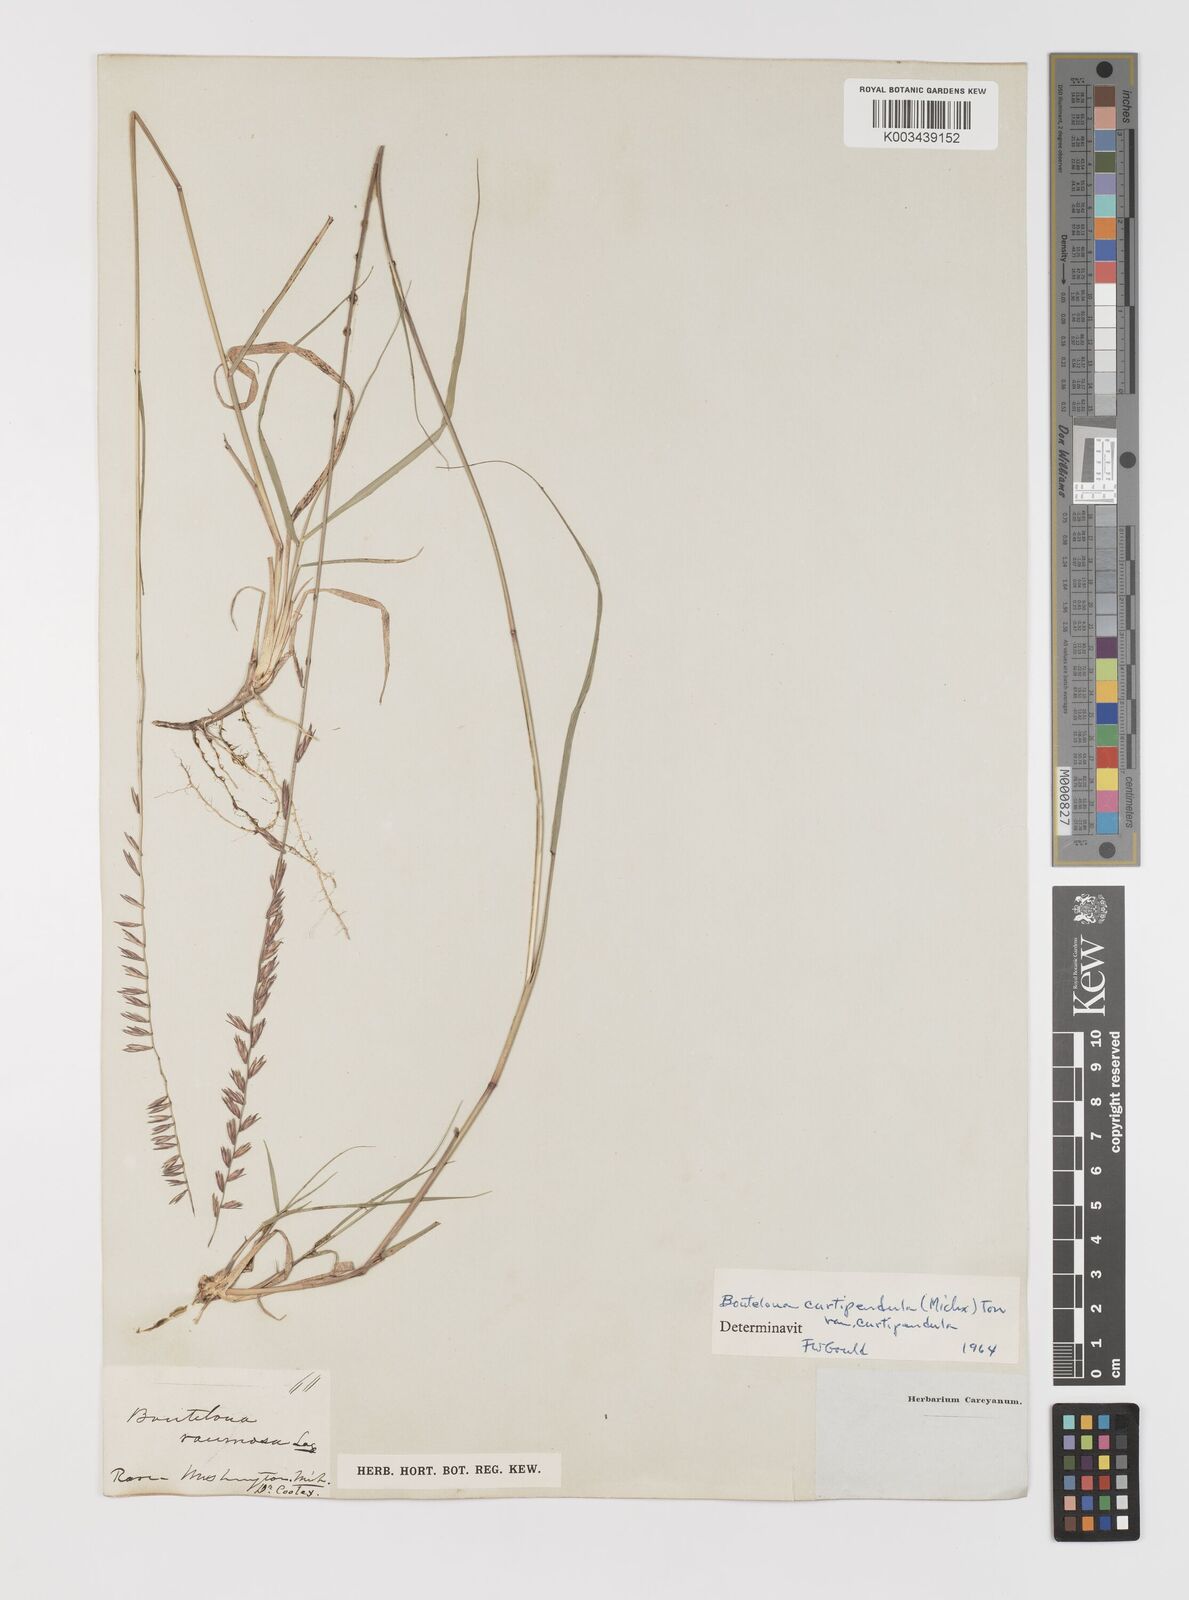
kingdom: Plantae
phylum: Tracheophyta
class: Liliopsida
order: Poales
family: Poaceae
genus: Bouteloua
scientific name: Bouteloua curtipendula
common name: Side-oats grama
